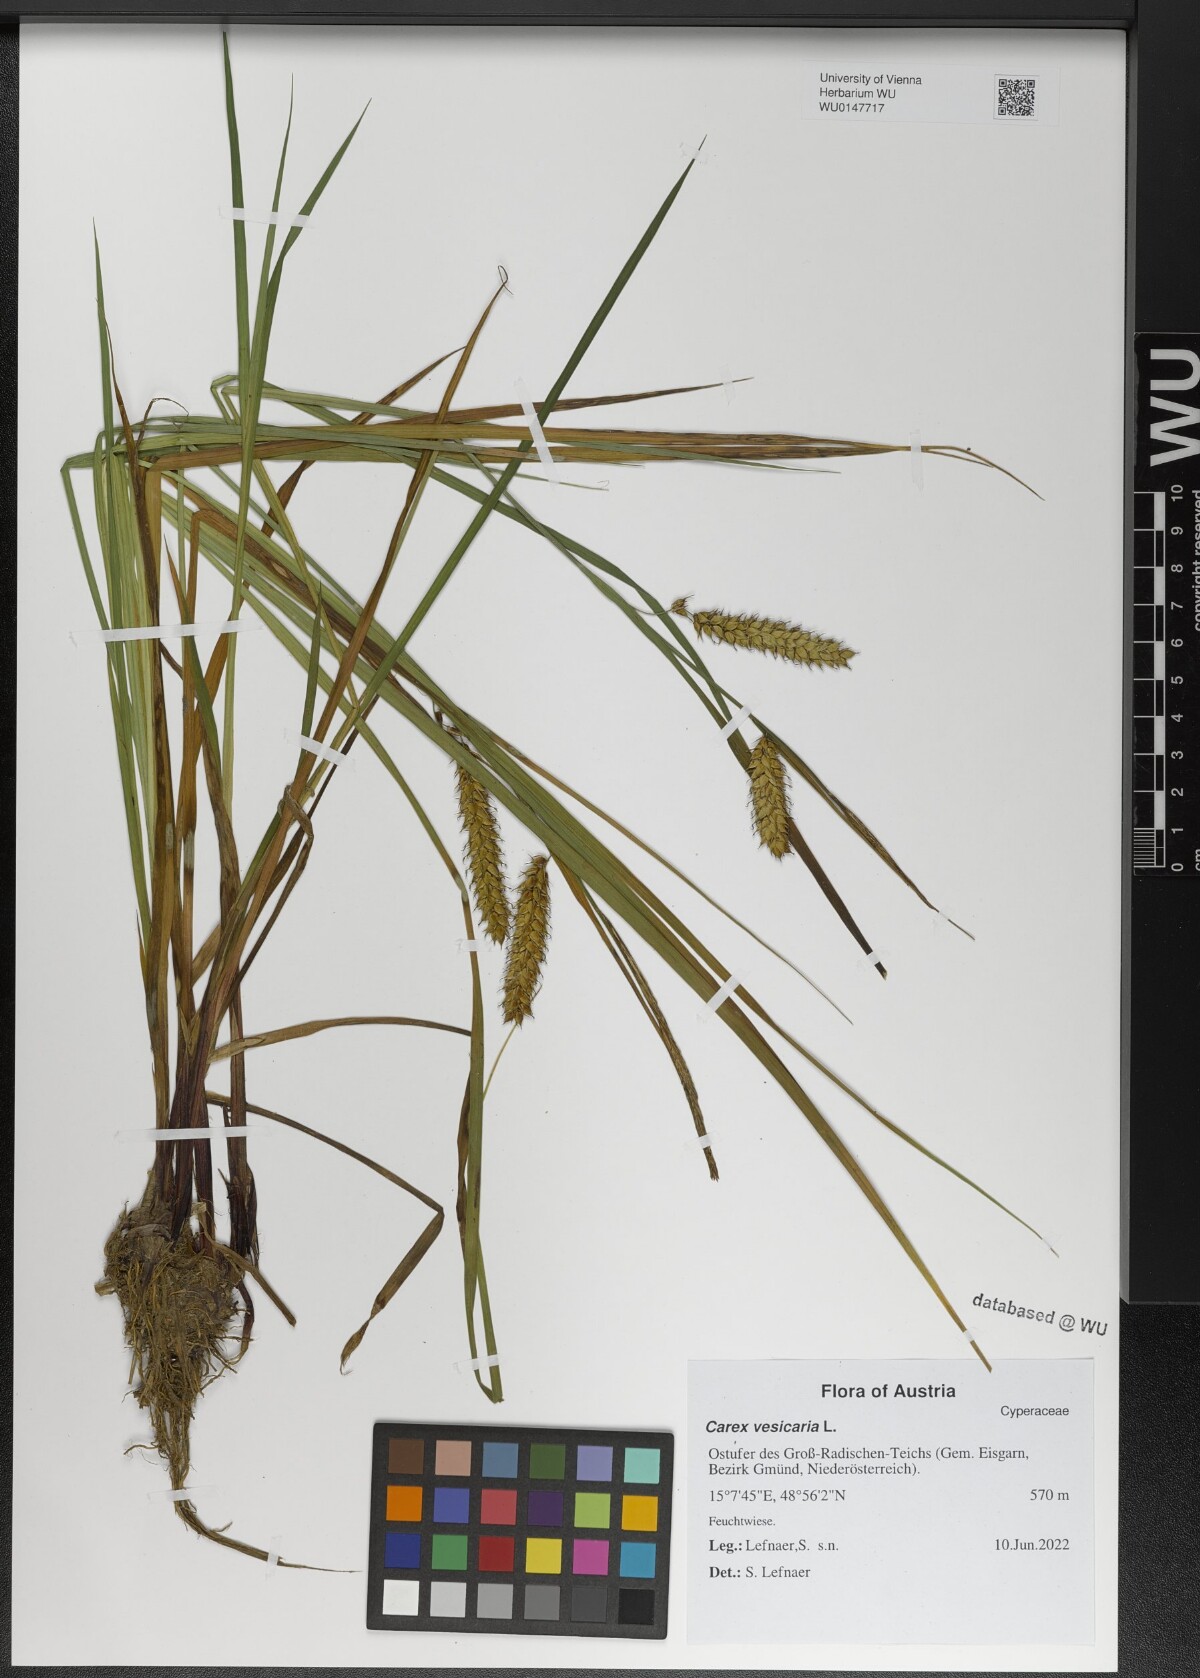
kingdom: Plantae
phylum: Tracheophyta
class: Liliopsida
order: Poales
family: Cyperaceae
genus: Carex
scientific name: Carex vesicaria
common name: Bladder-sedge
